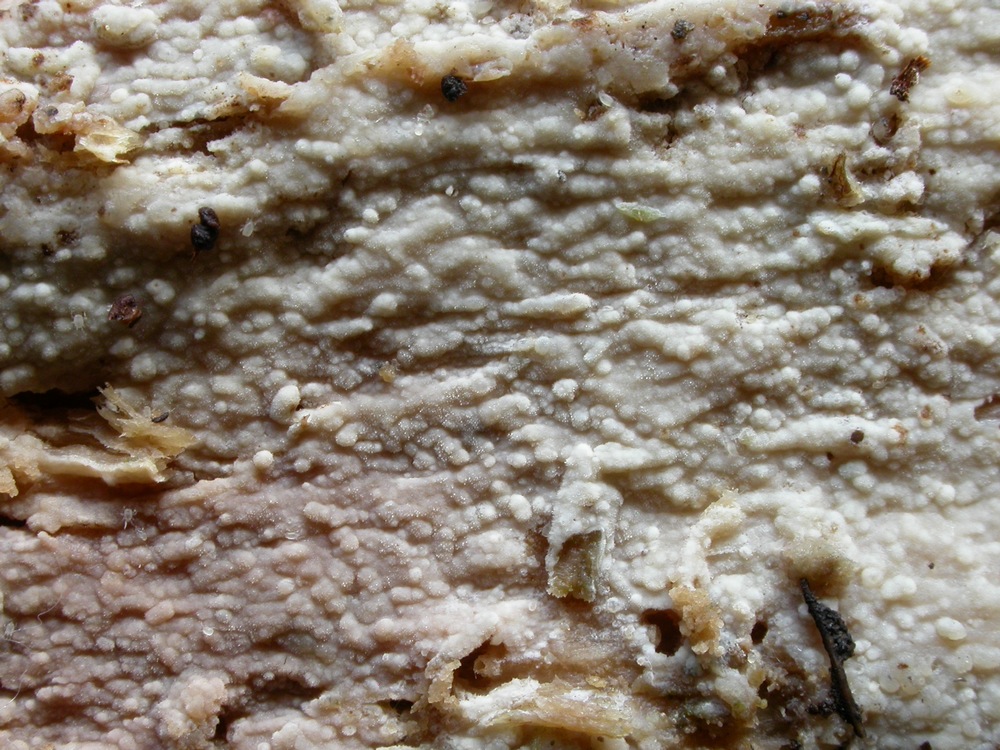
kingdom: Fungi
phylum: Basidiomycota
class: Agaricomycetes
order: Polyporales
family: Hyphodermataceae
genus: Hyphoderma
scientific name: Hyphoderma roseocremeum
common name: lillaplettet kalkskind
